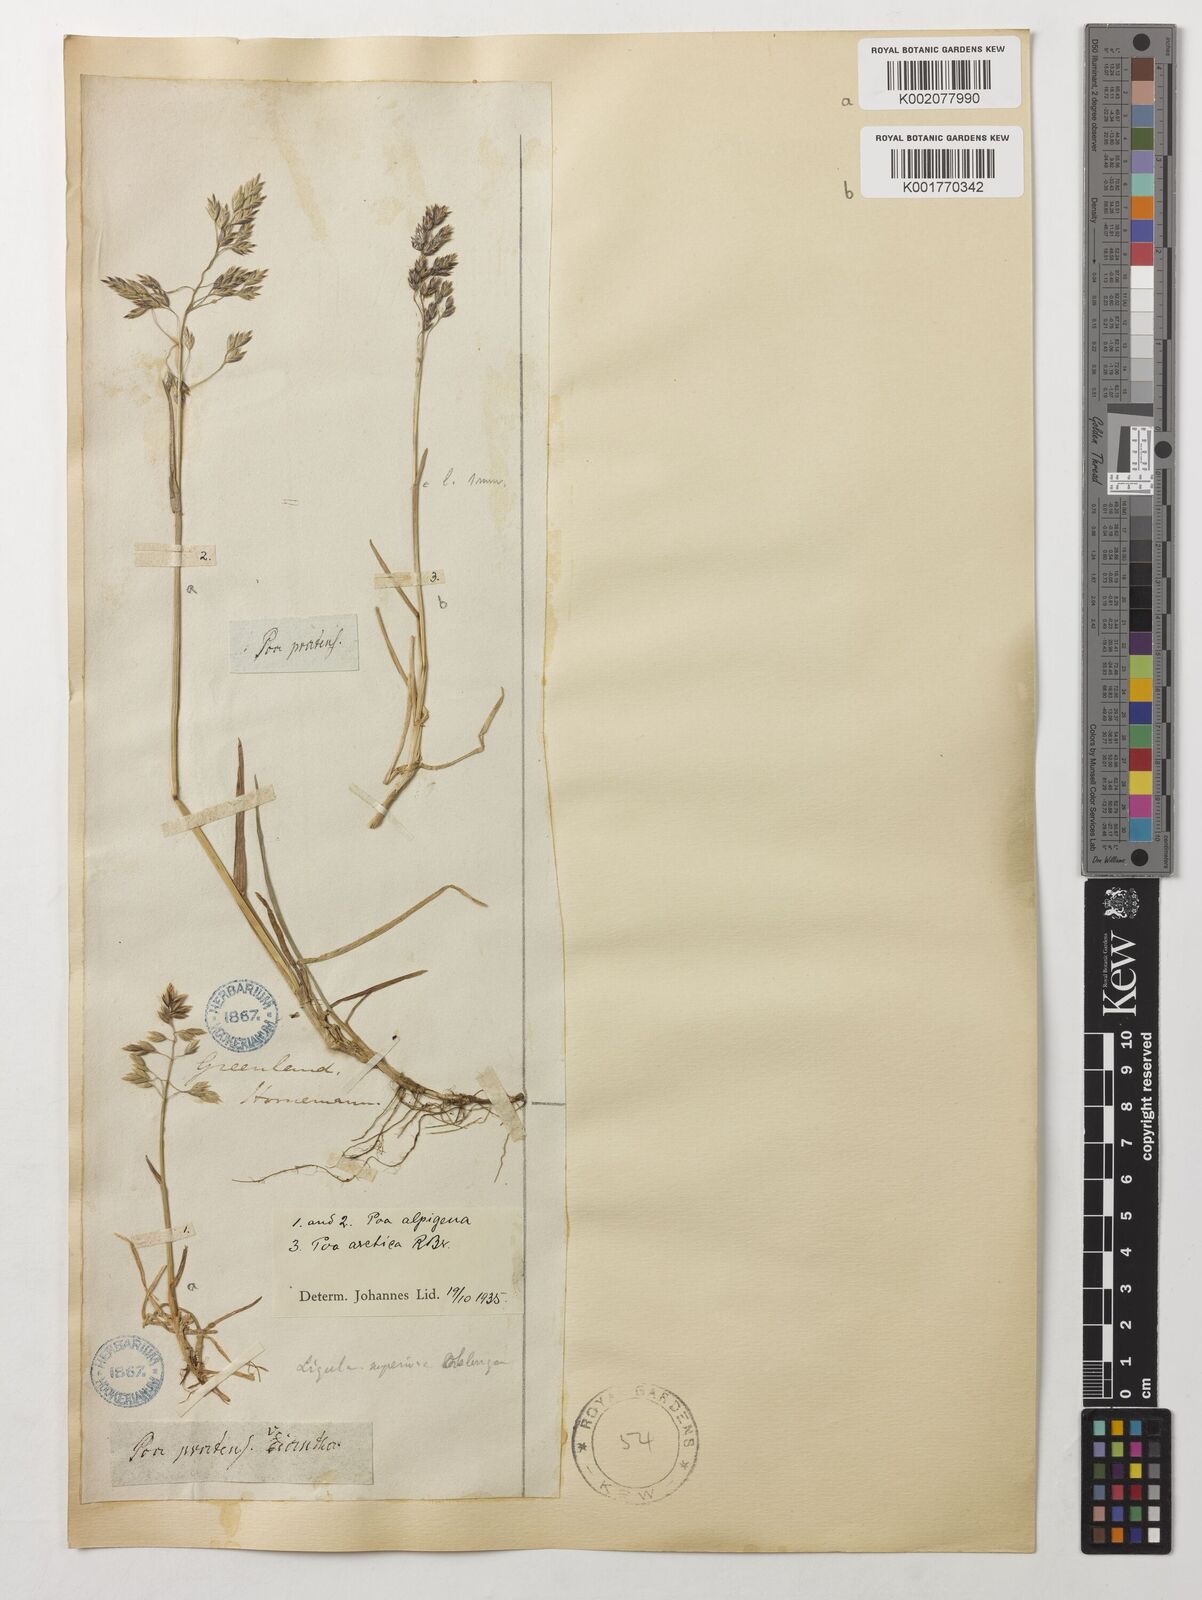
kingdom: Plantae
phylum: Tracheophyta
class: Liliopsida
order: Poales
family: Poaceae
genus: Poa
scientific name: Poa arctica
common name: Arctic bluegrass
